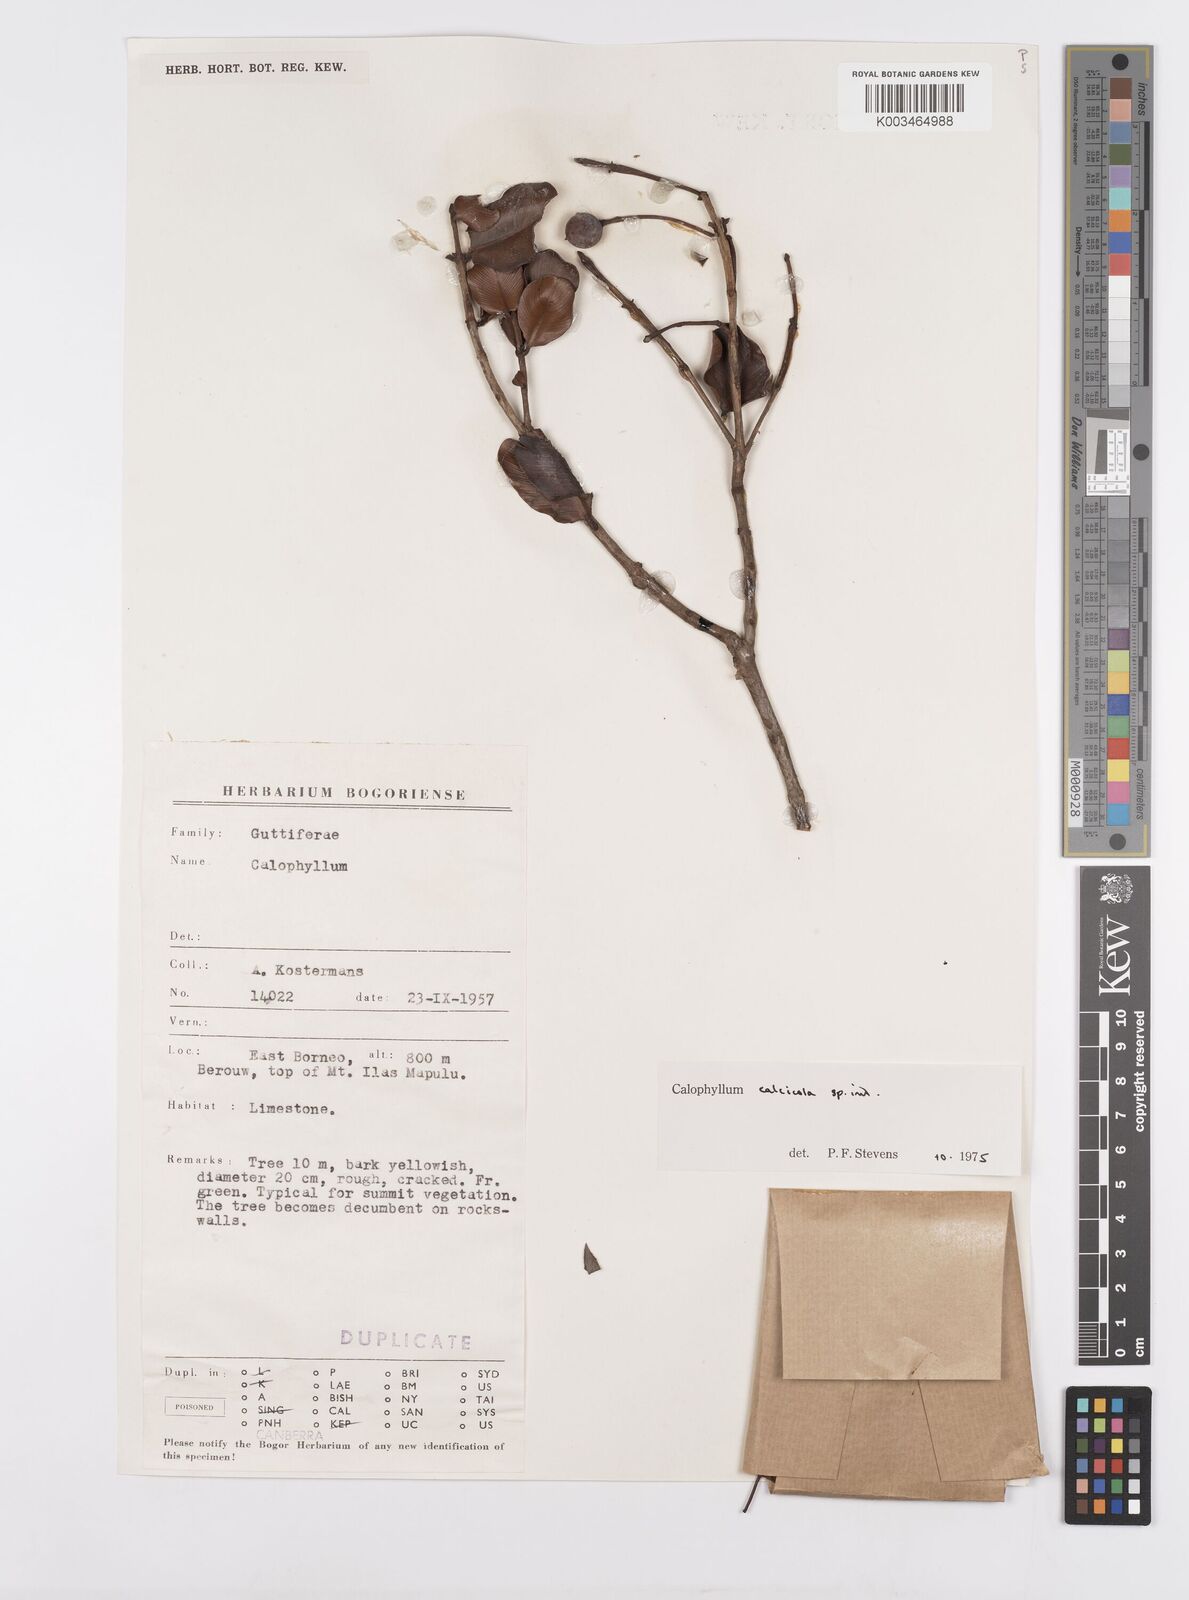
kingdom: Plantae
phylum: Tracheophyta
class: Magnoliopsida
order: Malpighiales
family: Calophyllaceae
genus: Calophyllum
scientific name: Calophyllum calcicola
